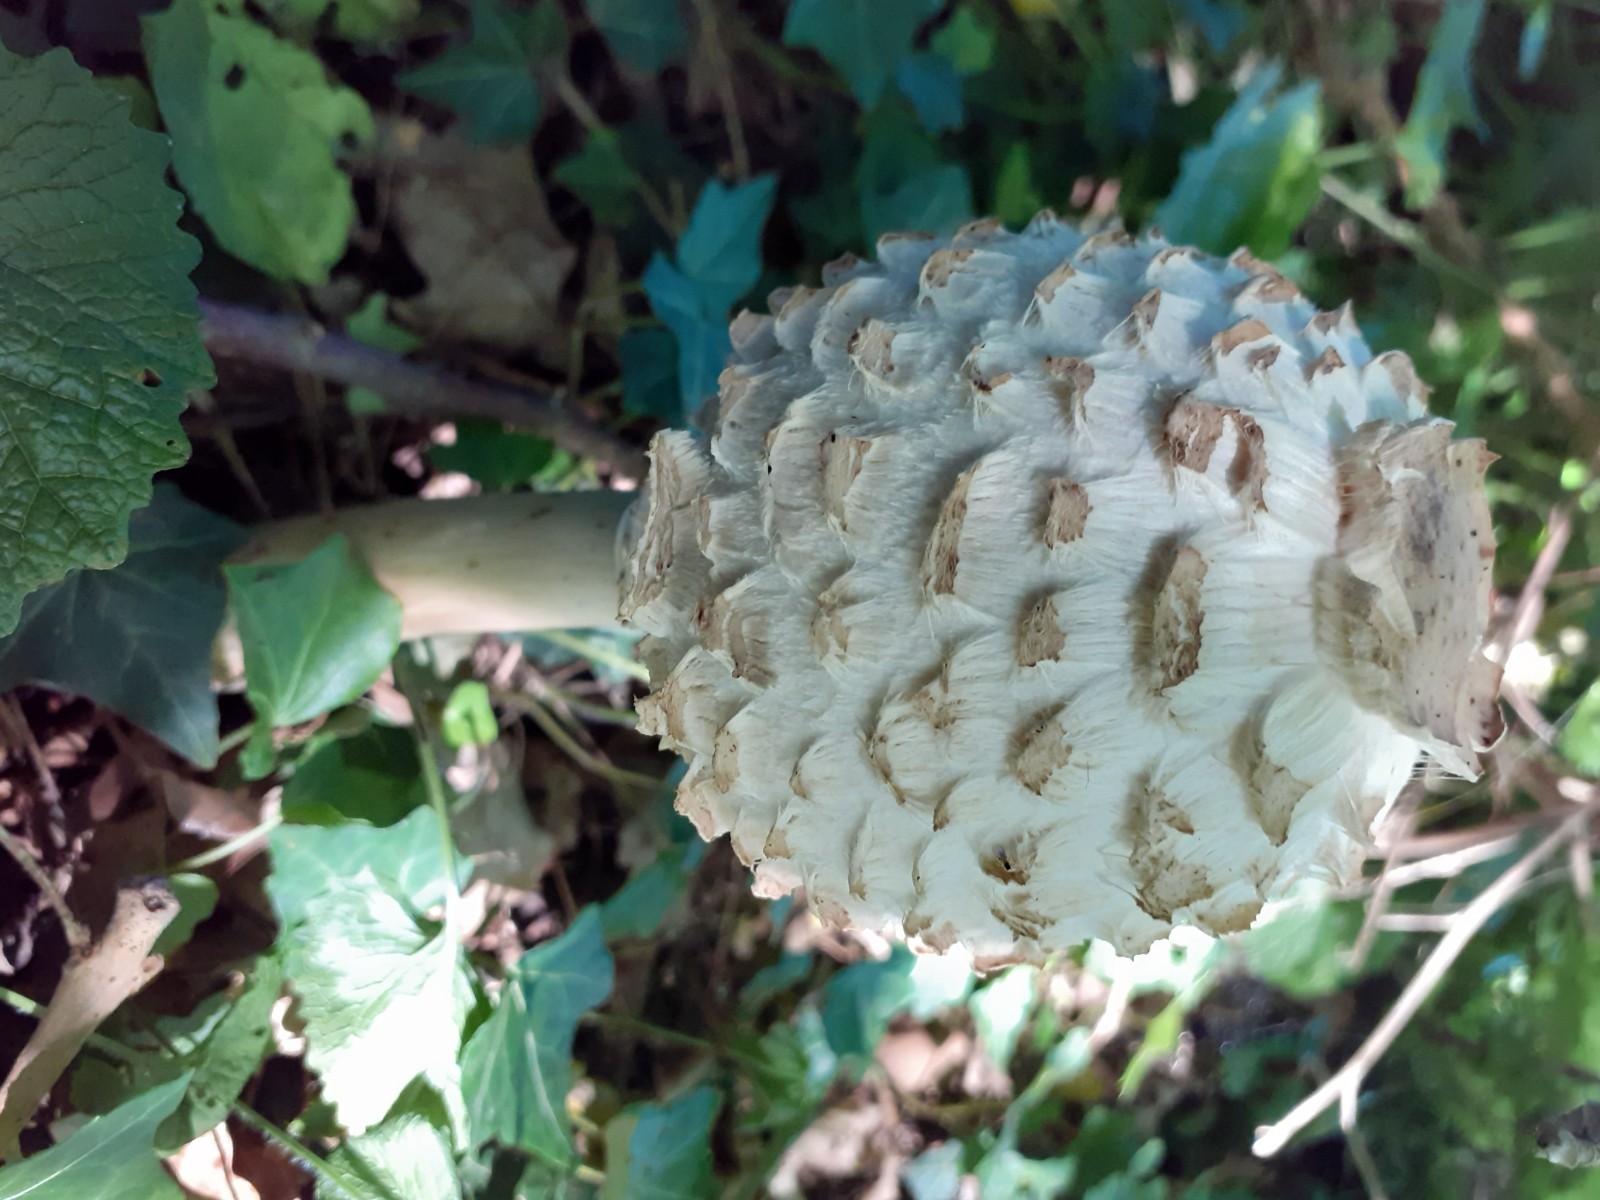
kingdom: Fungi
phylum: Basidiomycota
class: Agaricomycetes
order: Agaricales
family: Agaricaceae
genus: Chlorophyllum
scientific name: Chlorophyllum rhacodes
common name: ægte rabarberhat
